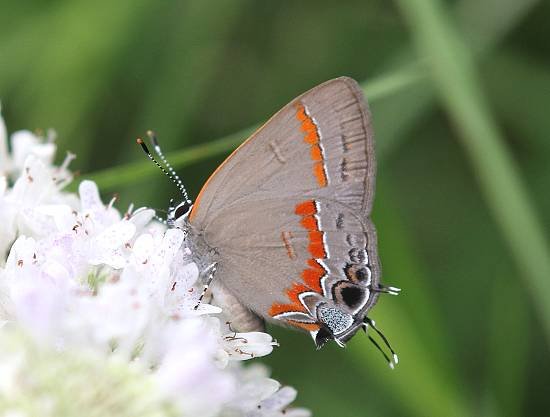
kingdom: Animalia
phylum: Arthropoda
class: Insecta
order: Lepidoptera
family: Lycaenidae
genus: Calycopis
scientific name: Calycopis cecrops
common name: Red-banded Hairstreak
